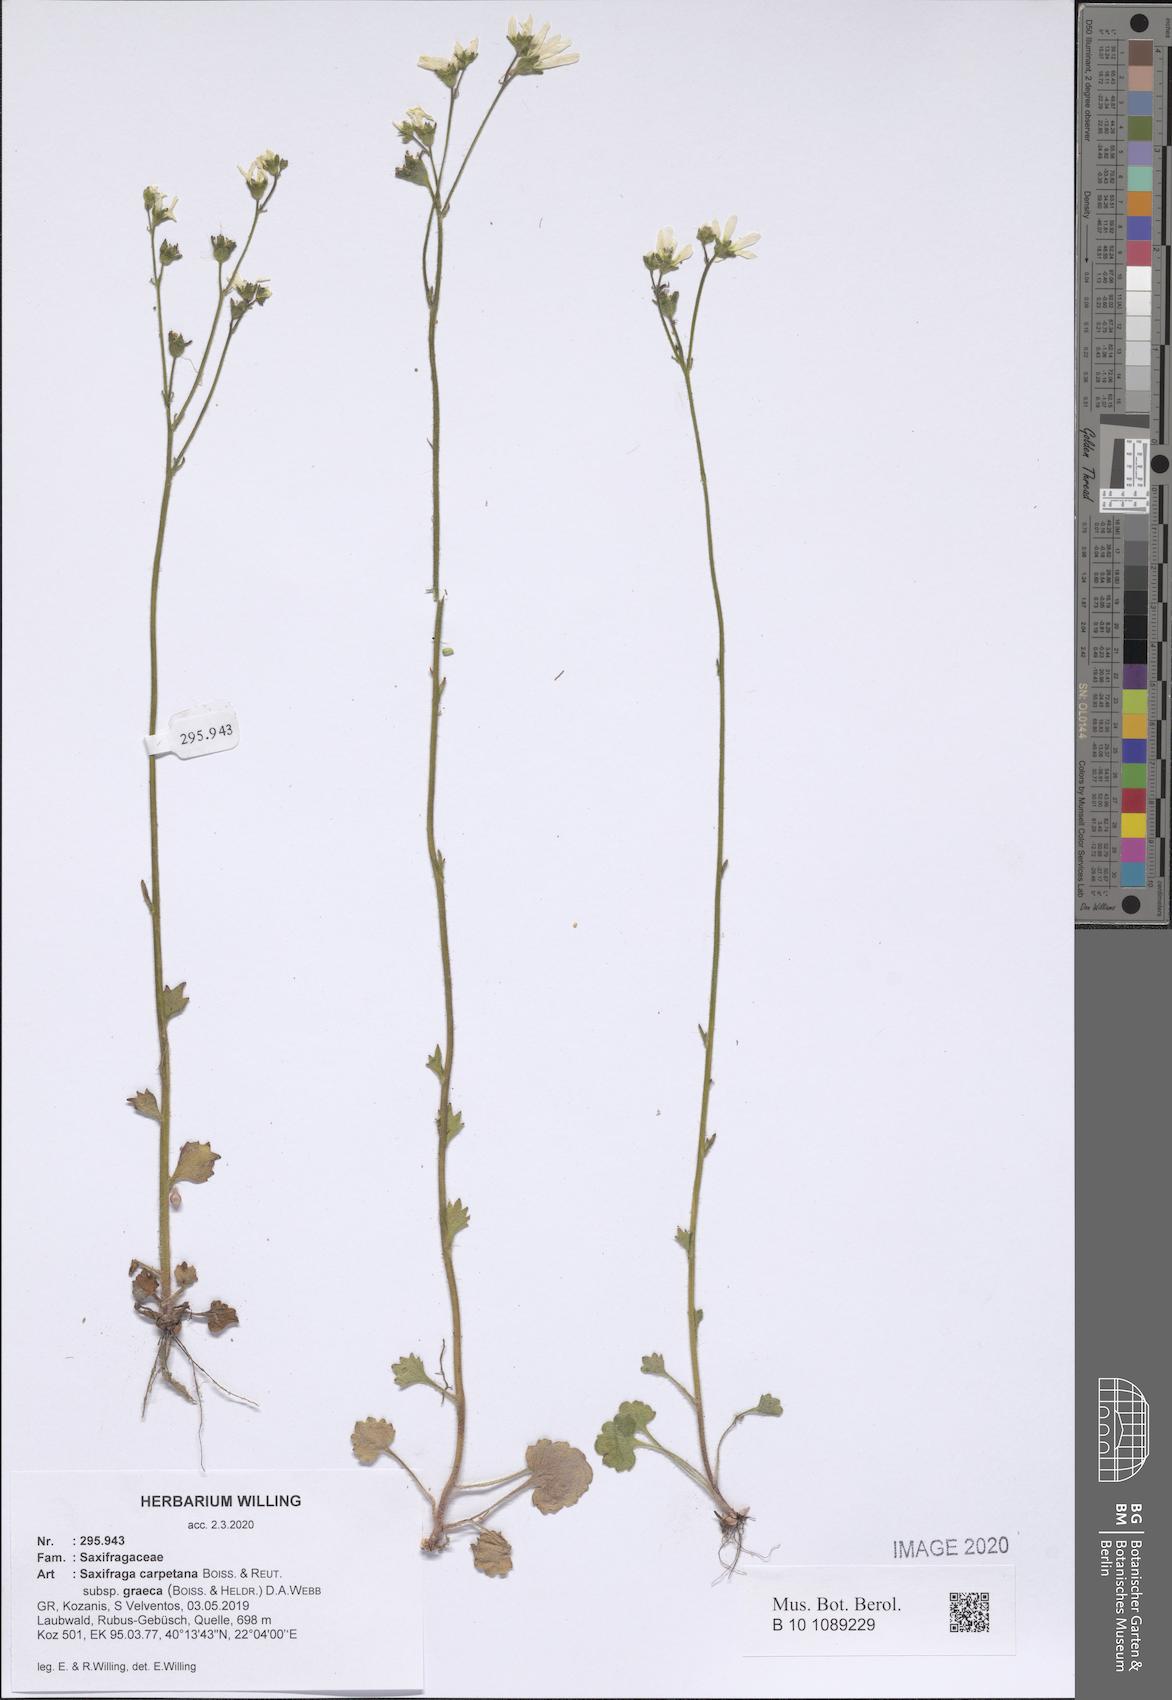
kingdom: Plantae
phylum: Tracheophyta
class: Magnoliopsida
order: Saxifragales
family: Saxifragaceae
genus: Saxifraga
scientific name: Saxifraga carpetana
